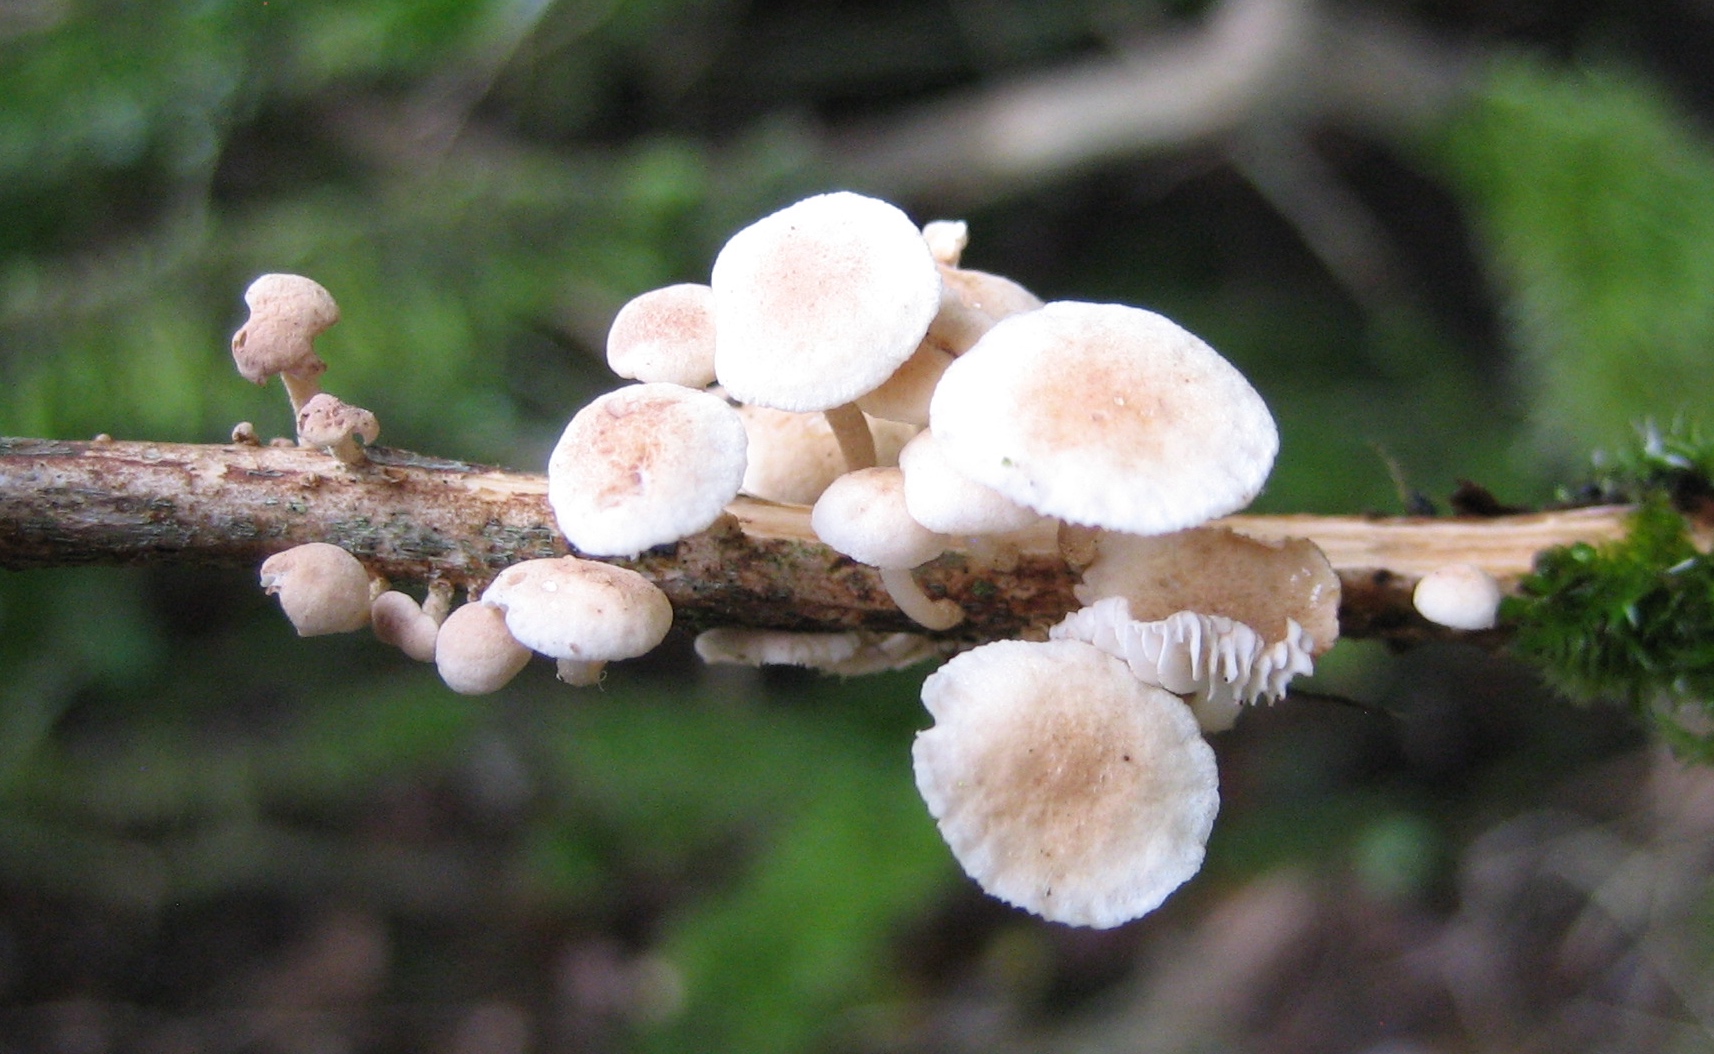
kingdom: Fungi
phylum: Basidiomycota
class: Agaricomycetes
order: Agaricales
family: Omphalotaceae
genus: Collybiopsis
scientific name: Collybiopsis ramealis
